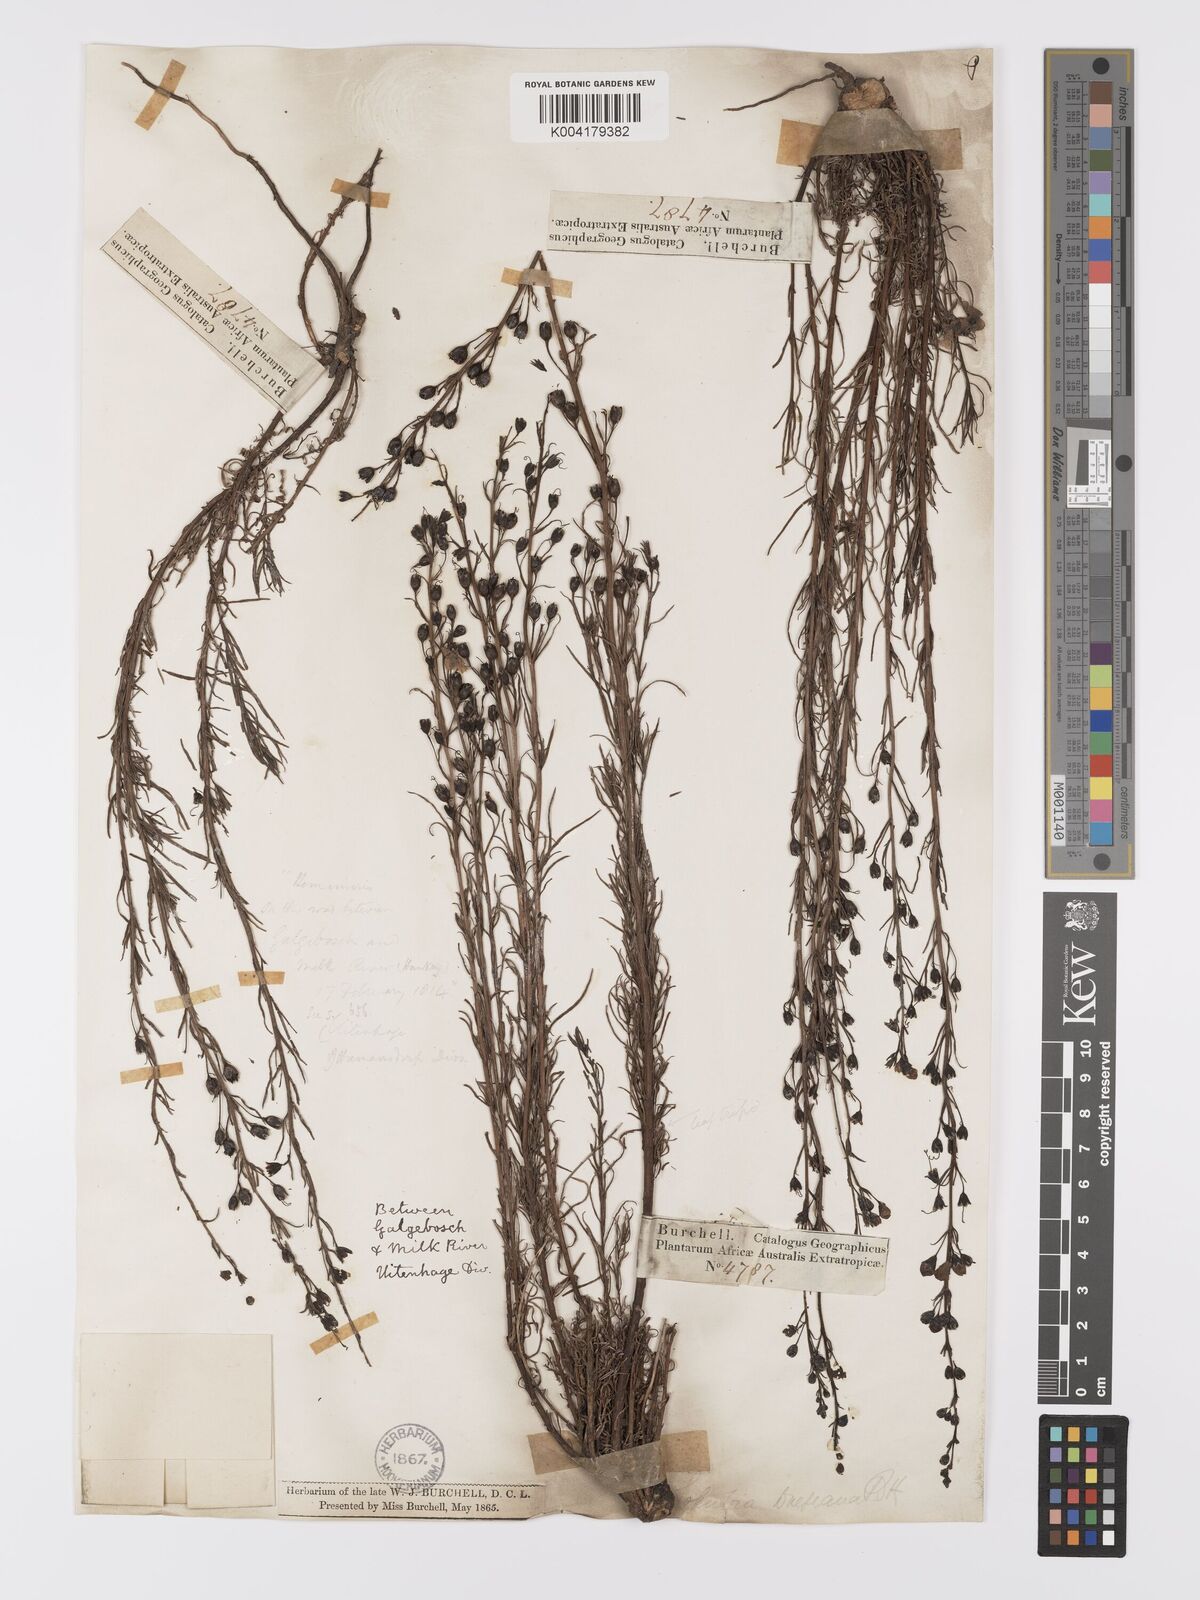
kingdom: Plantae
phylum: Tracheophyta
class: Magnoliopsida
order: Lamiales
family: Orobanchaceae
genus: Sopubia
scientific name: Sopubia simplex
